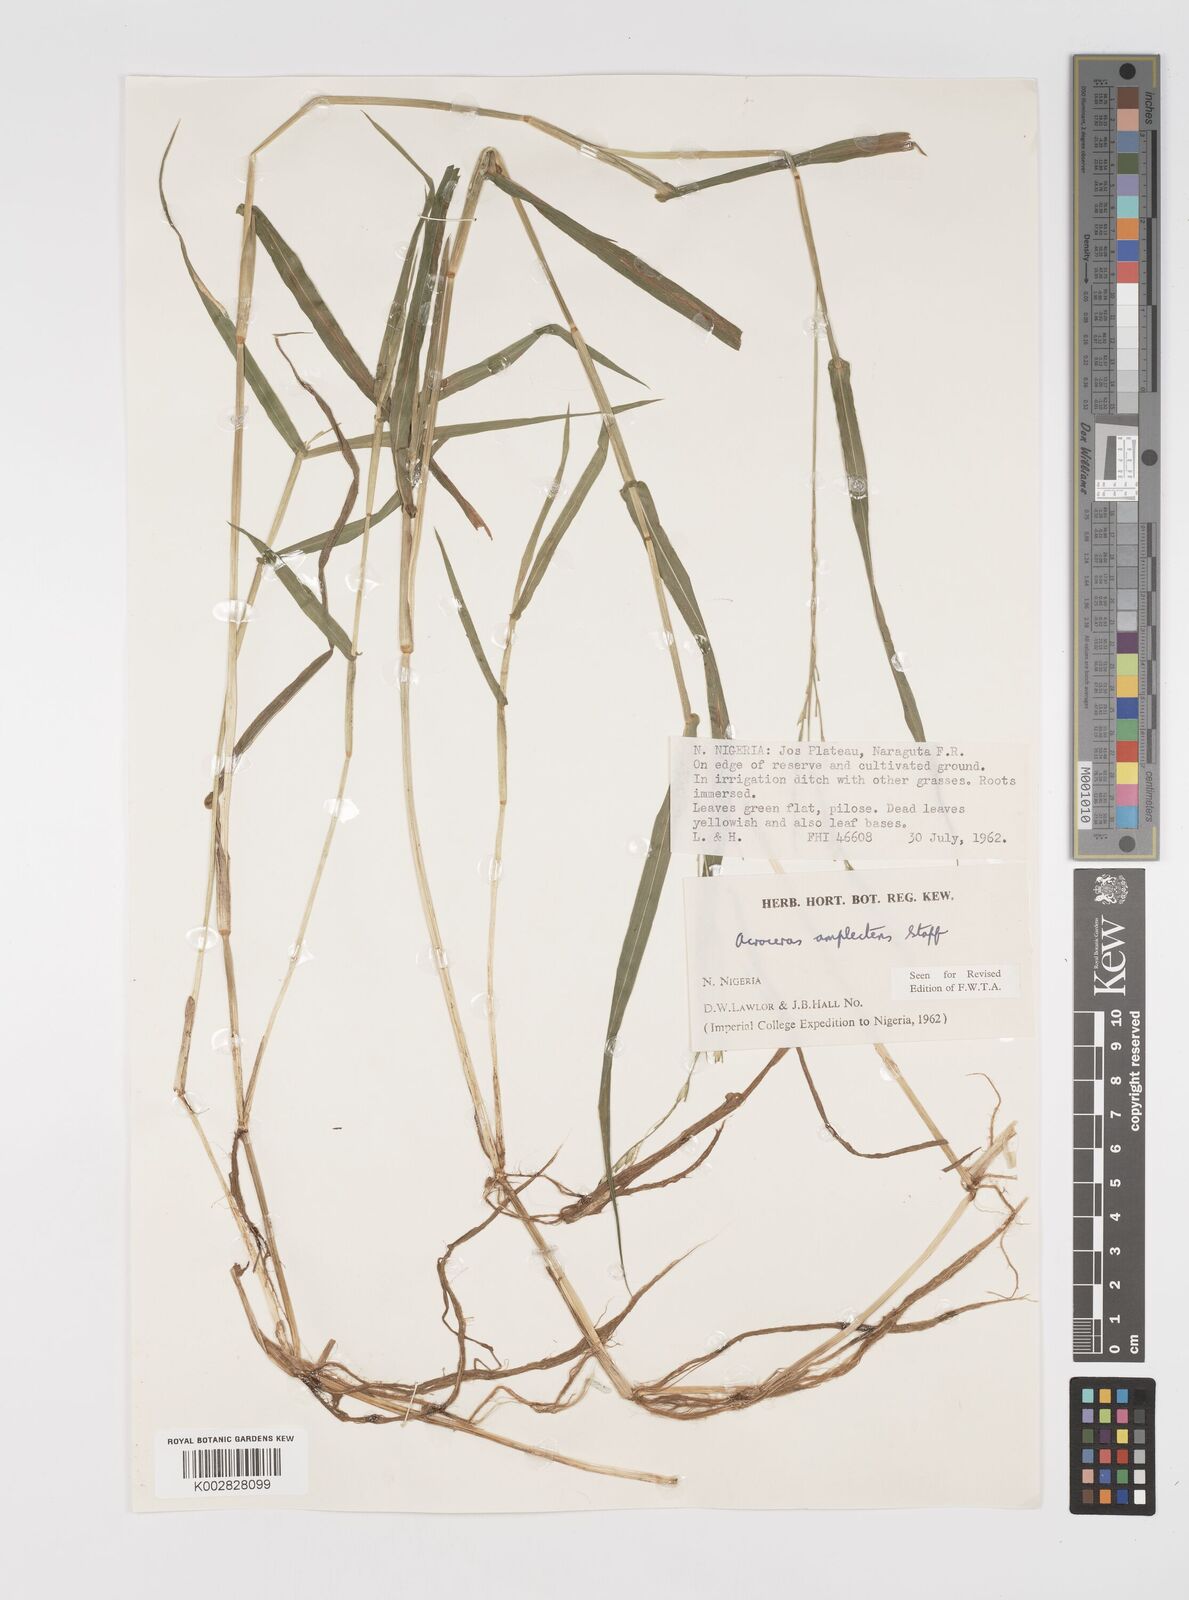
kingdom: Plantae
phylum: Tracheophyta
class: Liliopsida
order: Poales
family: Poaceae
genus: Acroceras
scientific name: Acroceras amplectens
